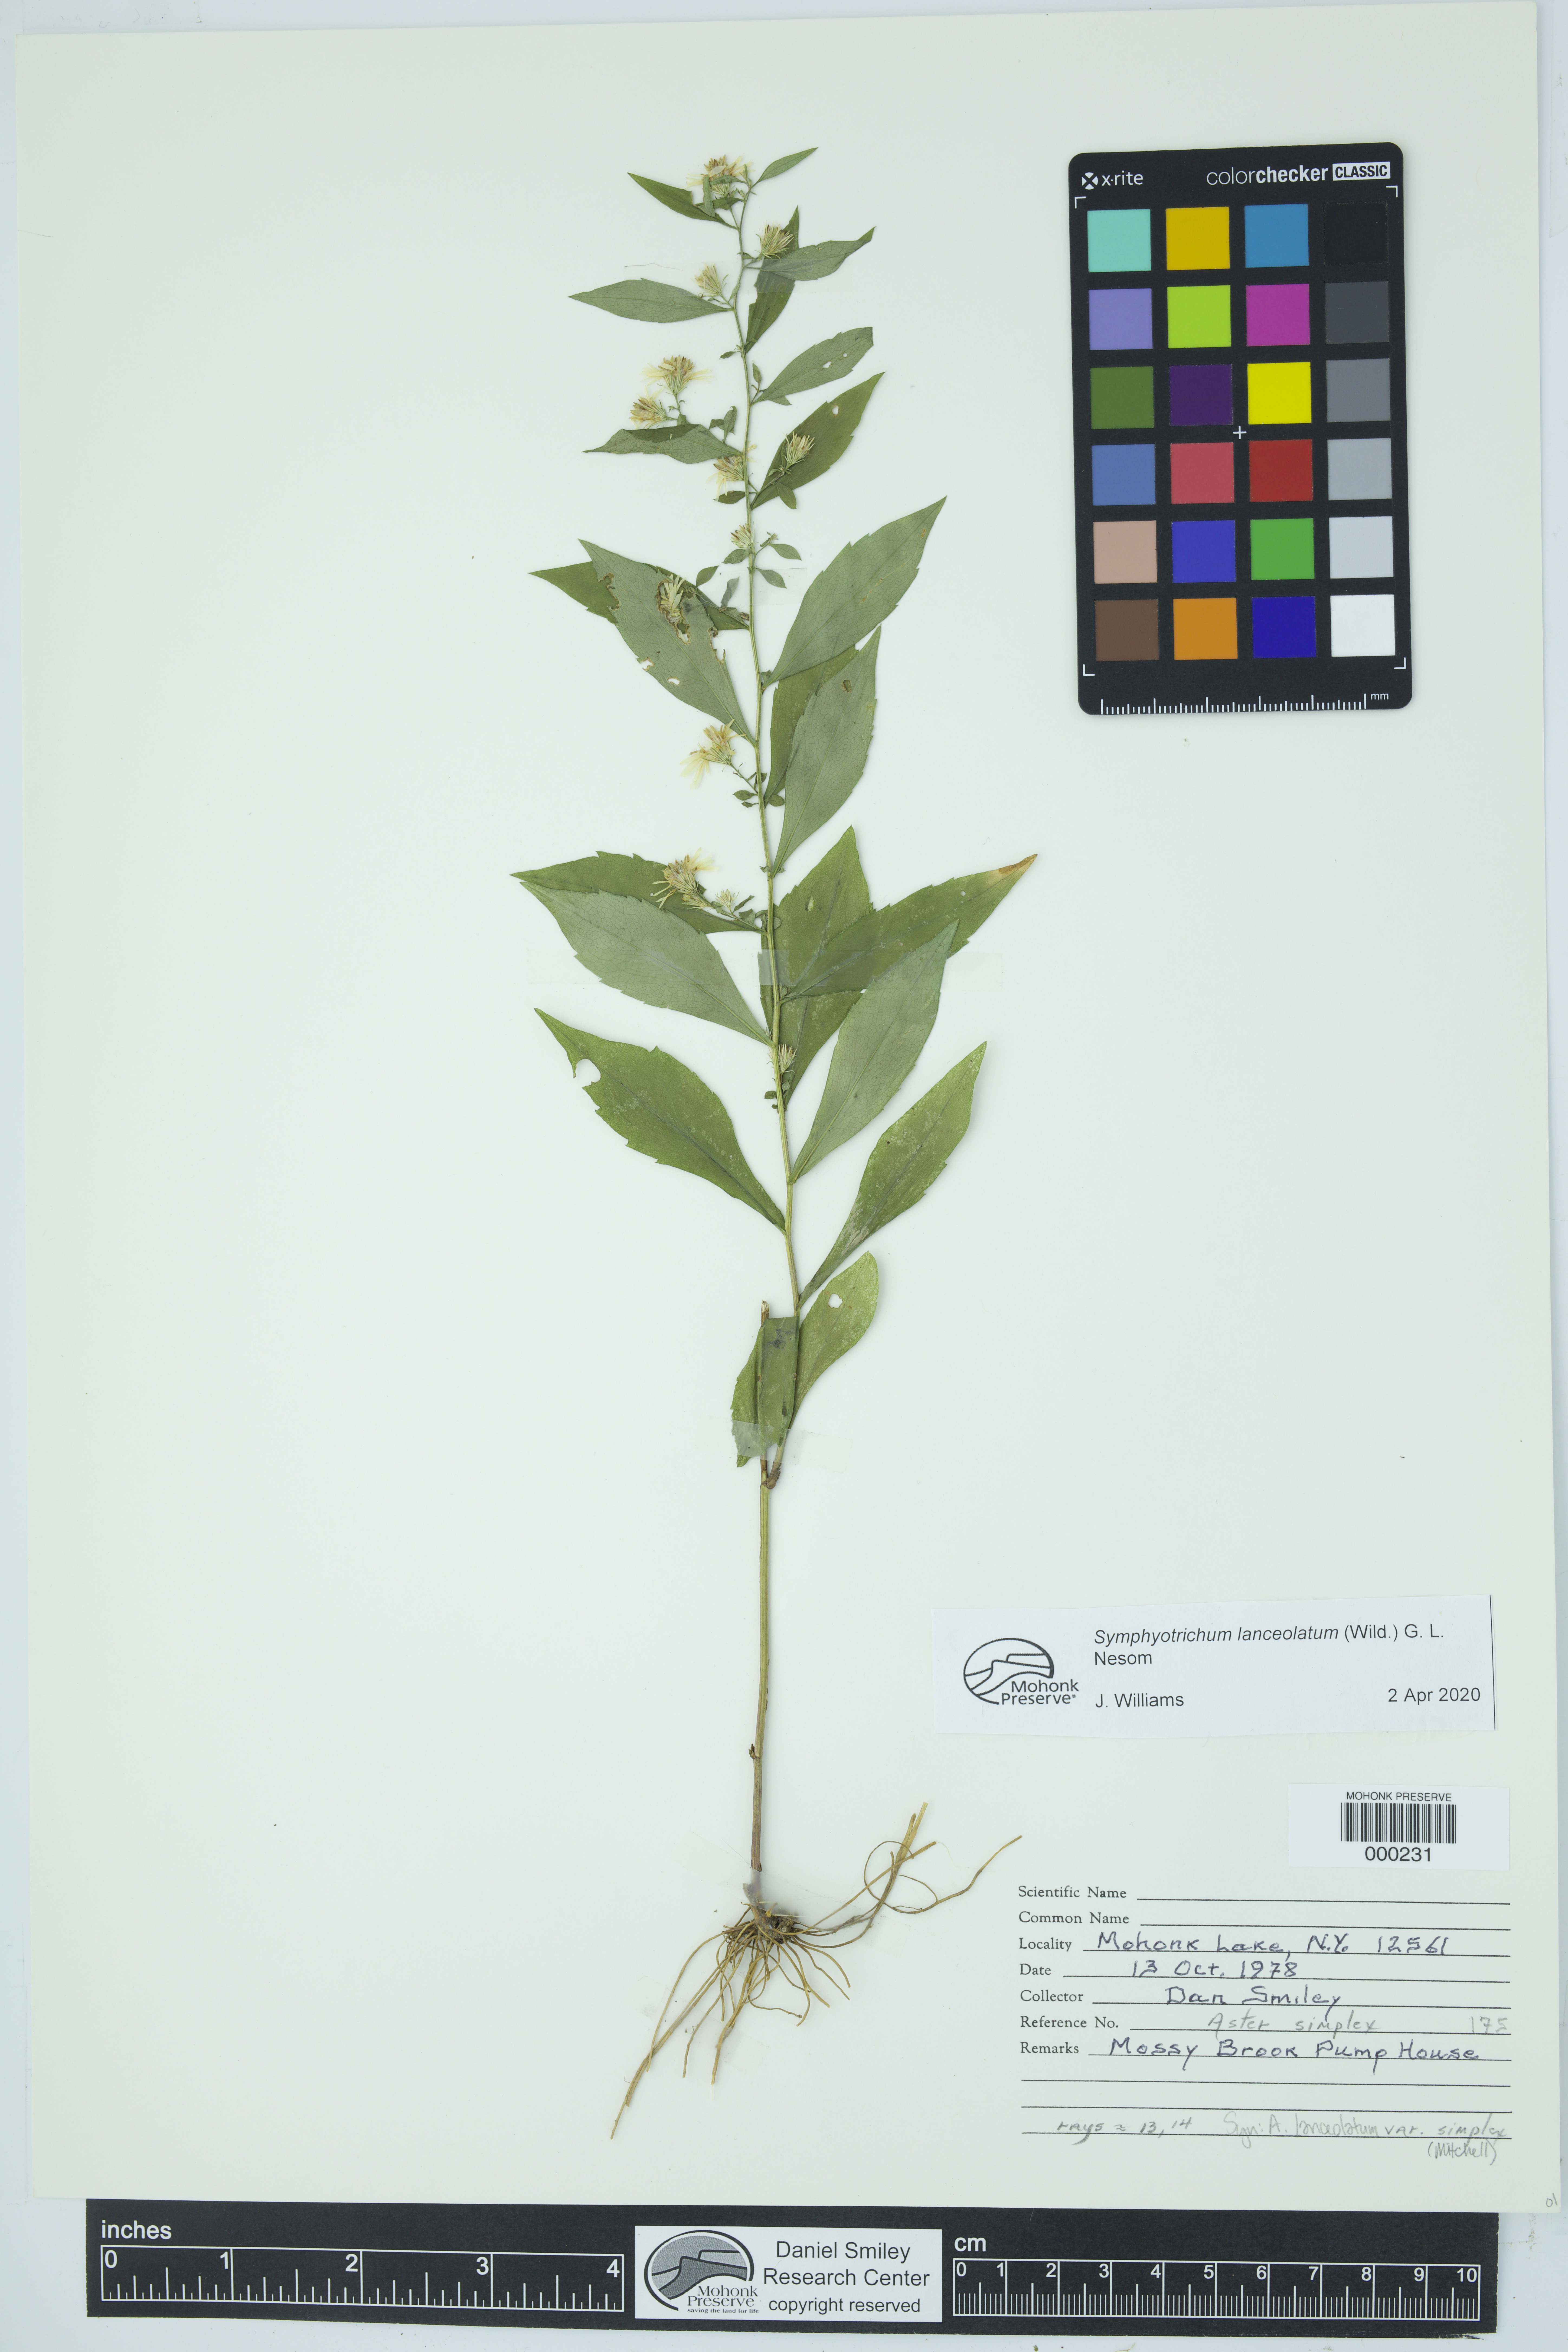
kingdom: Plantae
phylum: Tracheophyta
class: Magnoliopsida
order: Asterales
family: Asteraceae
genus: Symphyotrichum
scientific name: Symphyotrichum lanceolatum
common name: Panicled aster
